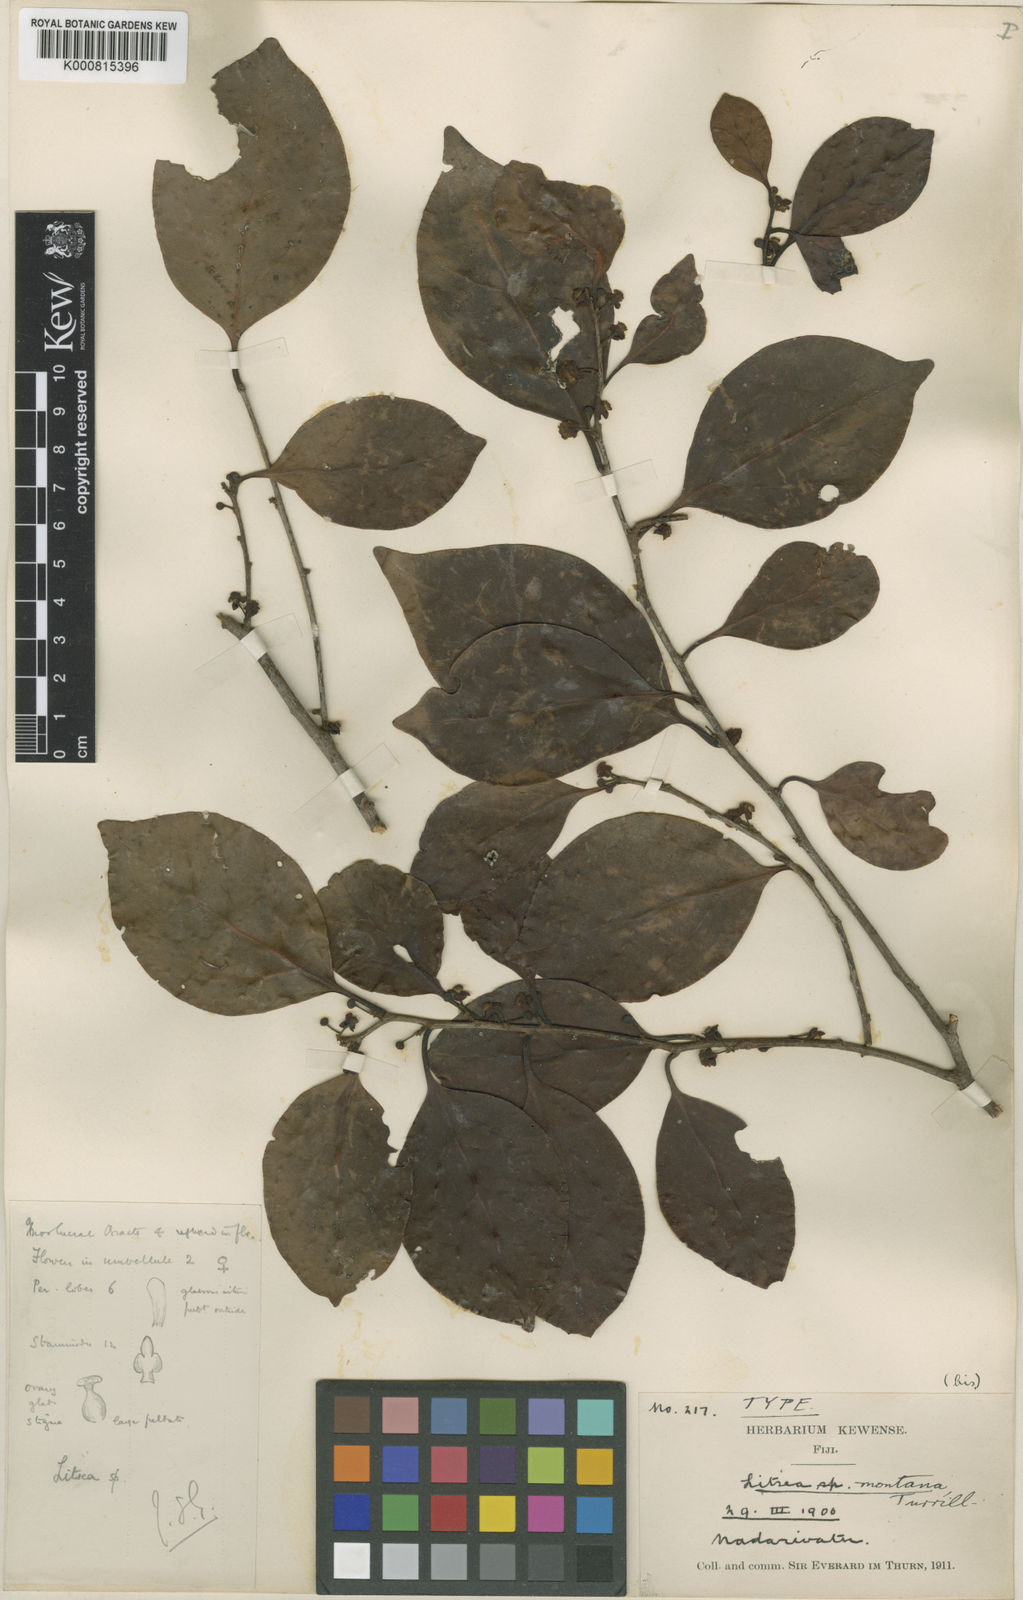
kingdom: Plantae
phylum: Tracheophyta
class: Magnoliopsida
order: Laurales
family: Lauraceae
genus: Litsea
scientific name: Litsea vitiana
